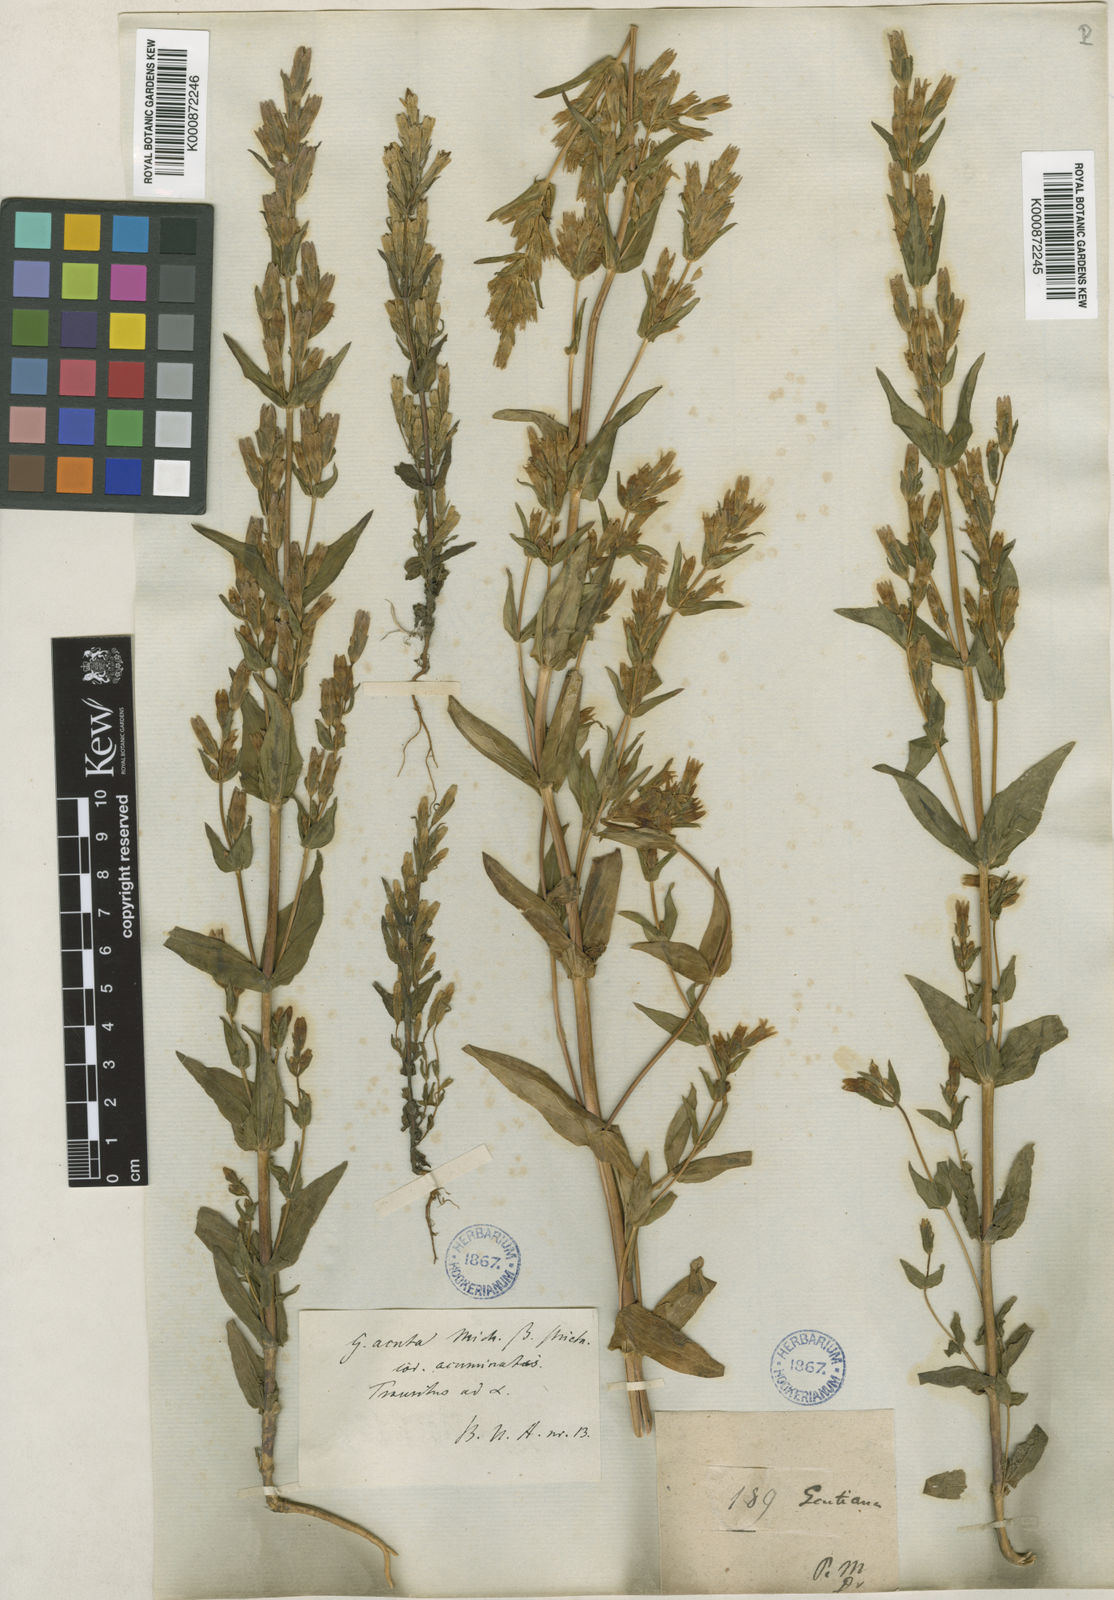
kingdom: Plantae
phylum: Tracheophyta
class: Magnoliopsida
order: Gentianales
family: Gentianaceae
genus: Gentianella
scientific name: Gentianella
